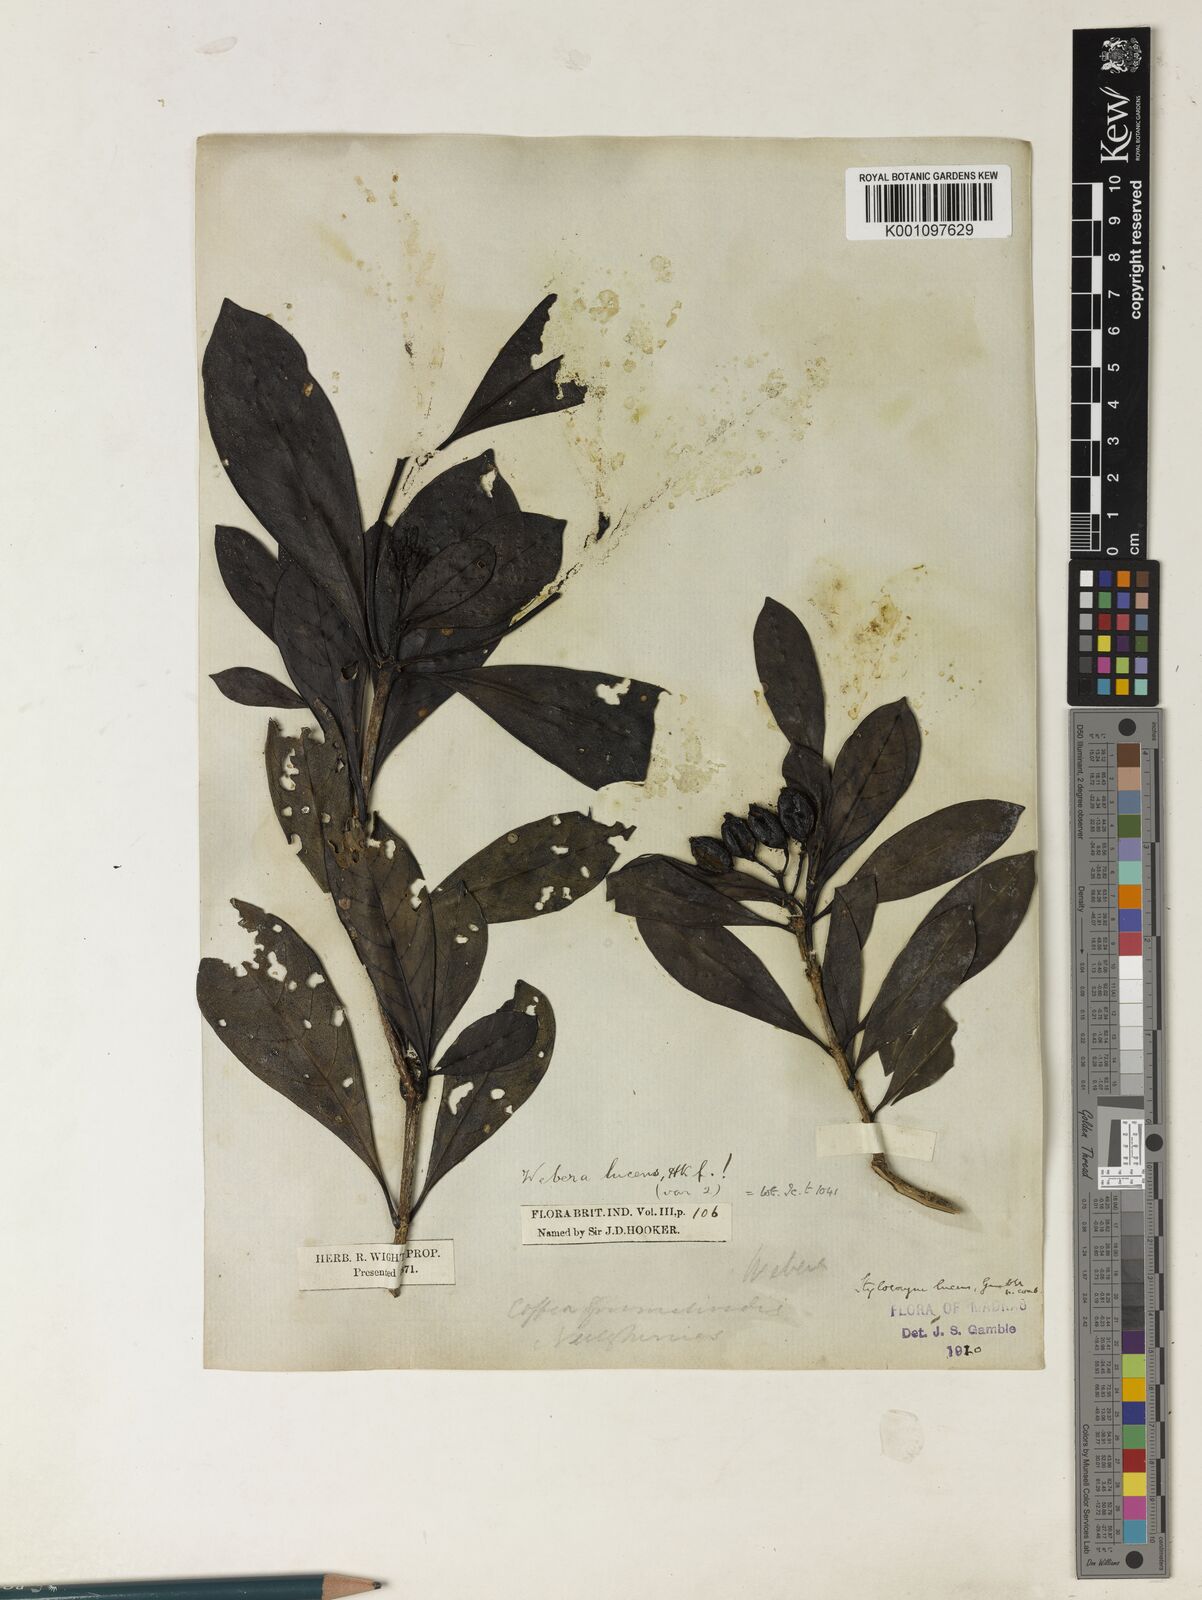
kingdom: Plantae
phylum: Tracheophyta
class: Magnoliopsida
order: Gentianales
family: Rubiaceae
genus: Tarenna
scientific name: Tarenna alpestris
